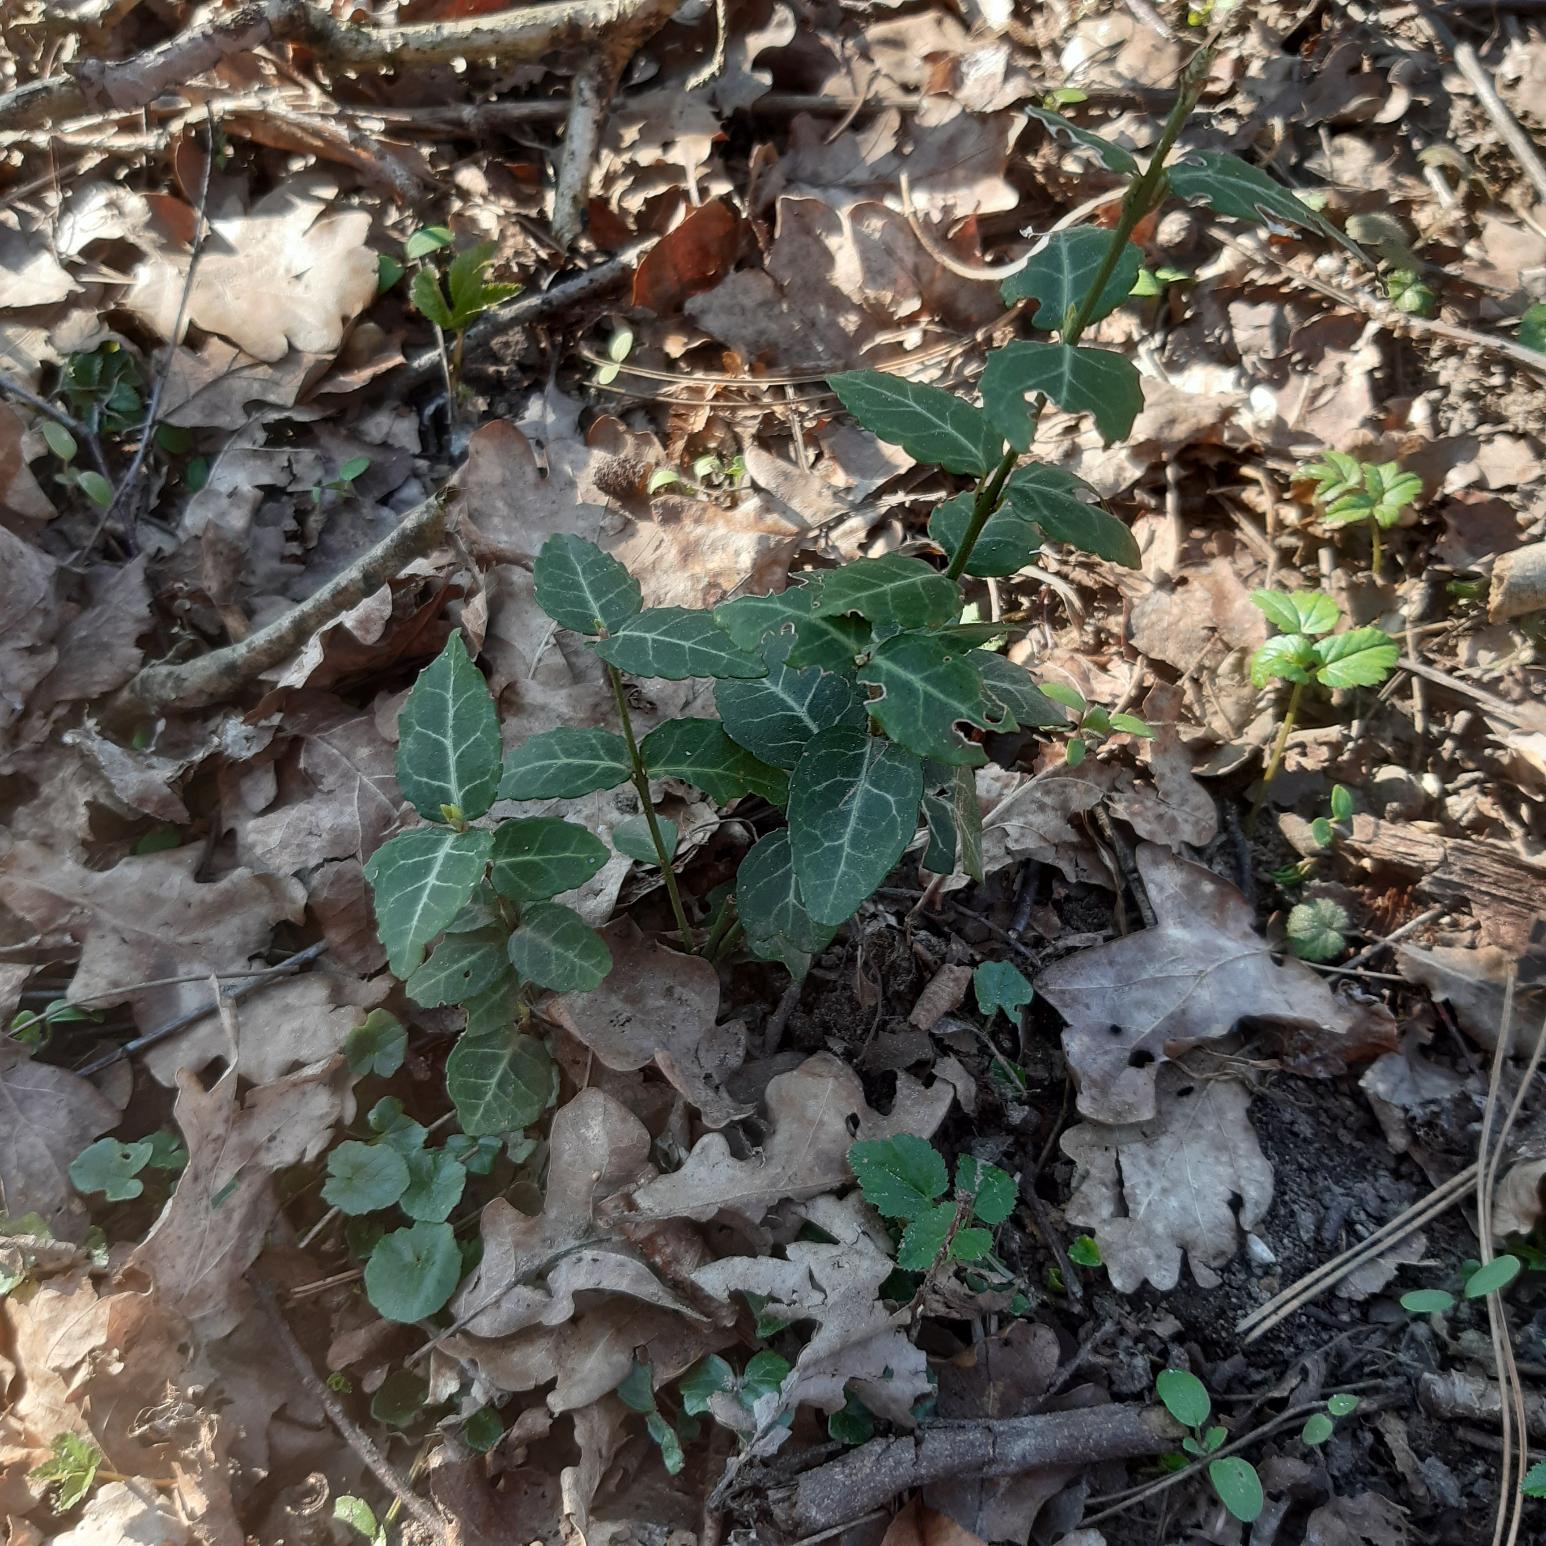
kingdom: Plantae
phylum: Tracheophyta
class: Magnoliopsida
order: Celastrales
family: Celastraceae
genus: Euonymus
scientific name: Euonymus fortunei
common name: Krybende benved
